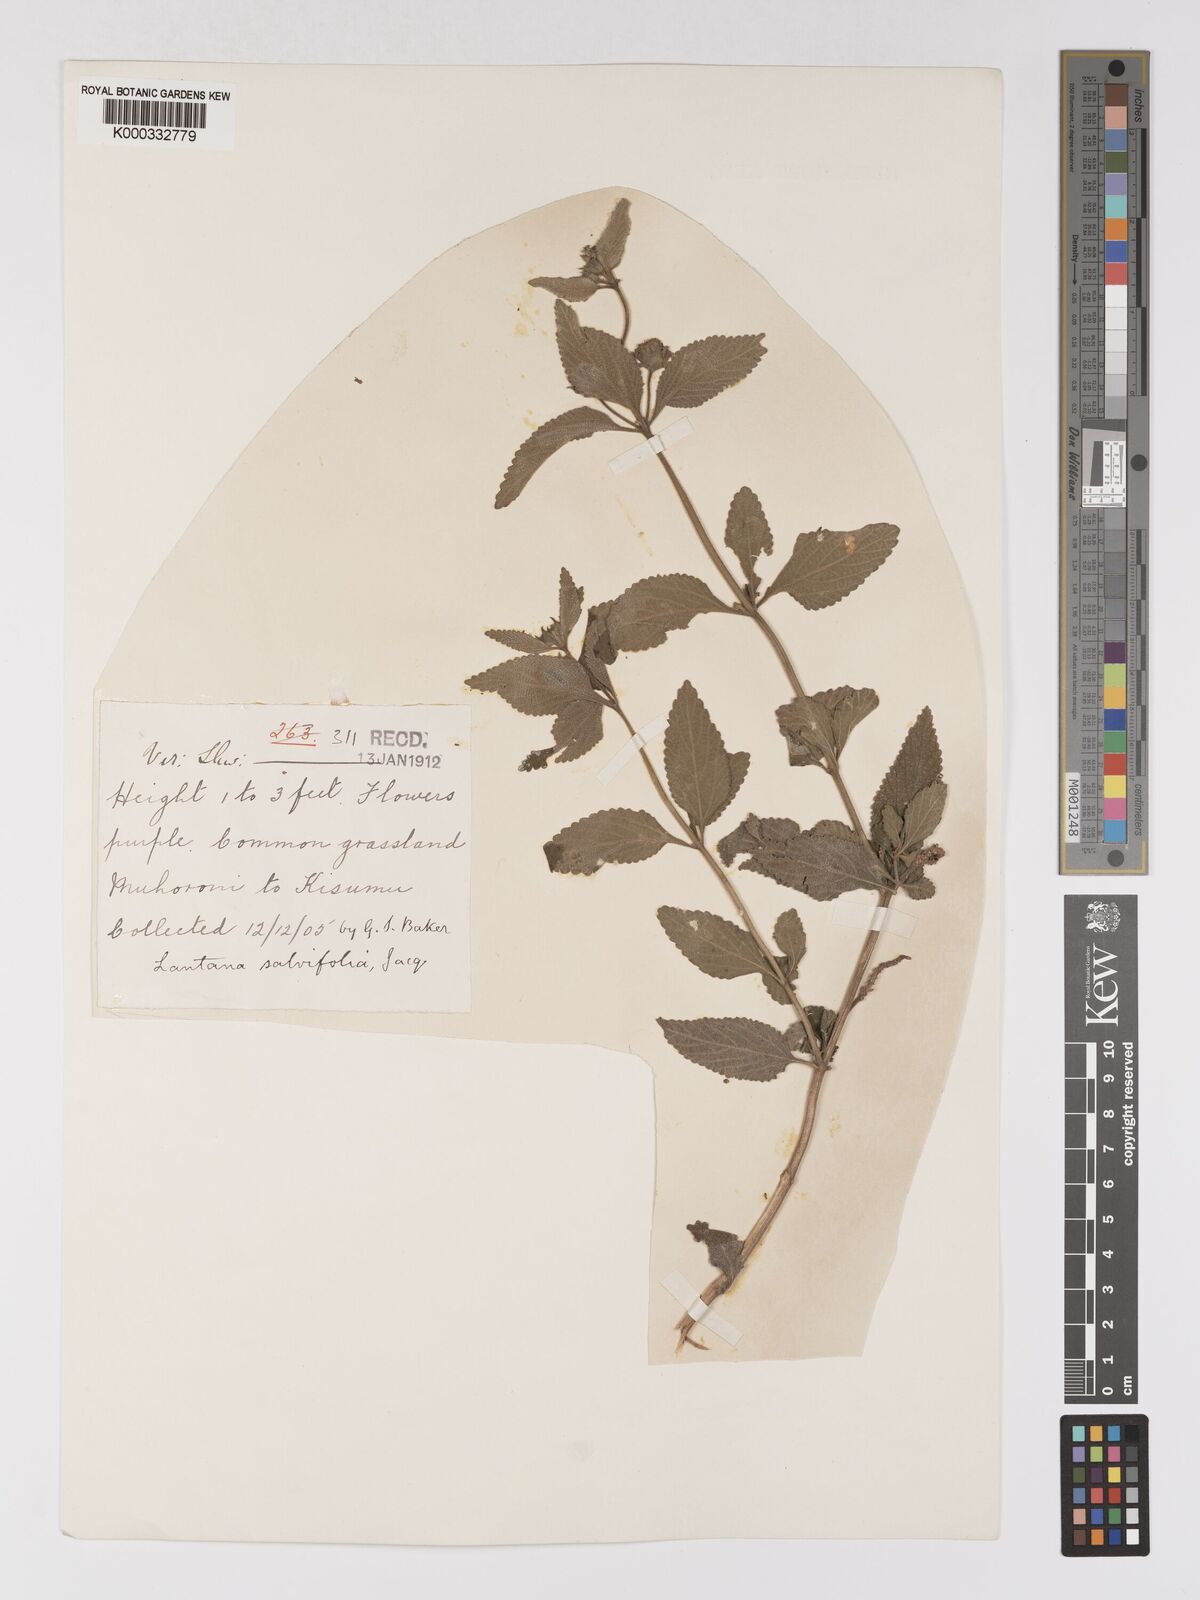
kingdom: Plantae
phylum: Tracheophyta
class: Magnoliopsida
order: Lamiales
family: Verbenaceae
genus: Lantana
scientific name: Lantana ukambensis
